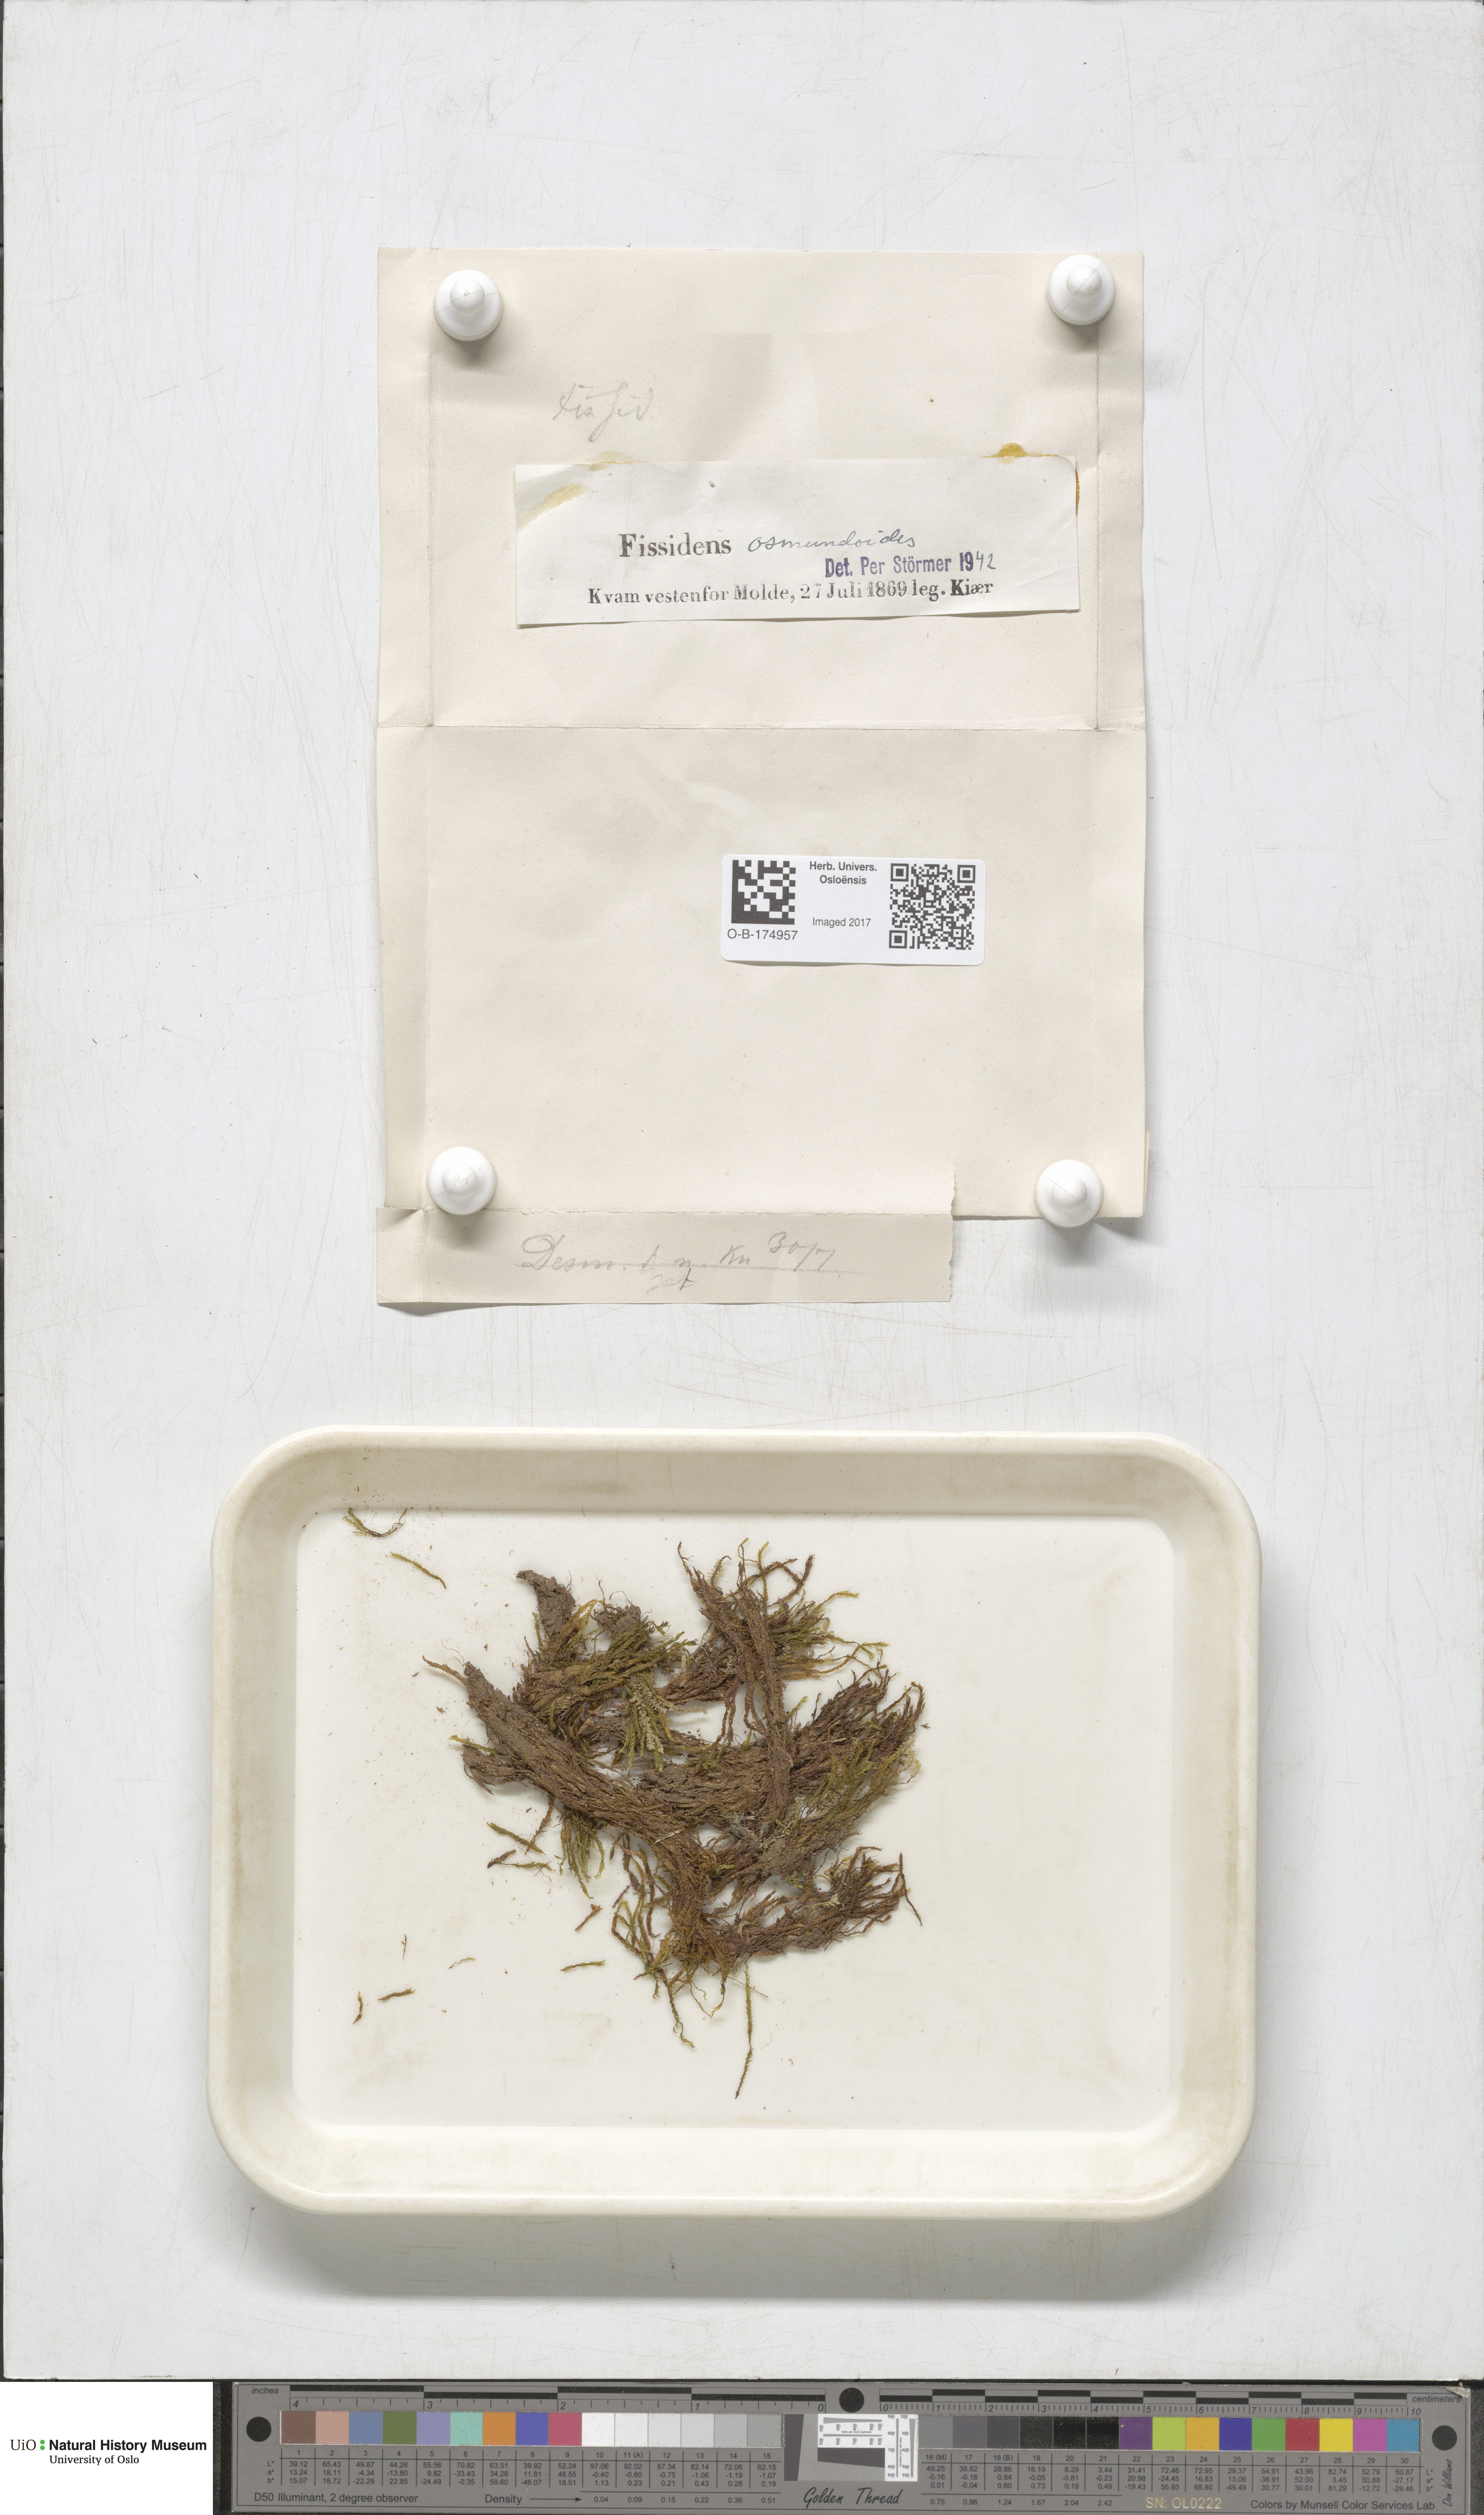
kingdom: Plantae
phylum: Bryophyta
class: Bryopsida
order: Dicranales
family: Fissidentaceae
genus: Fissidens
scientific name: Fissidens osmundoides
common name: Purple-stalked pocket moss
